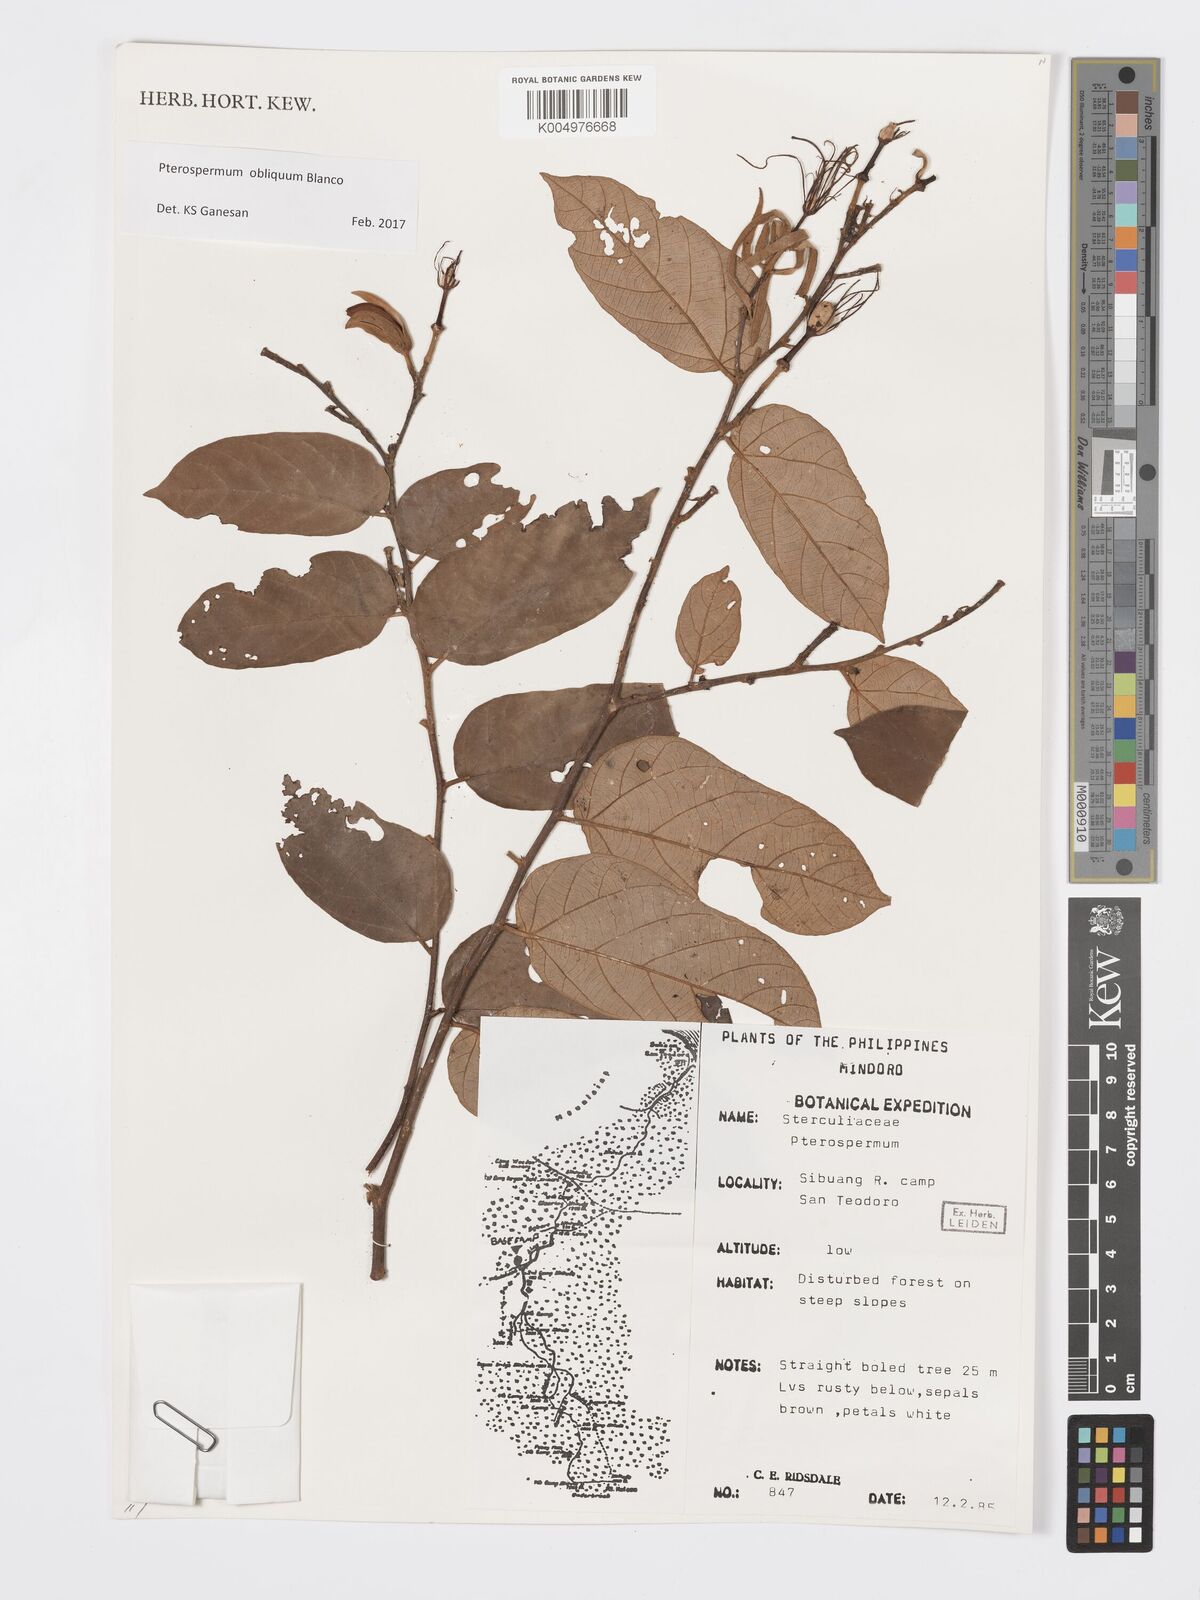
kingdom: Plantae
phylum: Tracheophyta
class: Magnoliopsida
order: Malvales
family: Malvaceae
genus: Pterospermum
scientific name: Pterospermum obliquum
